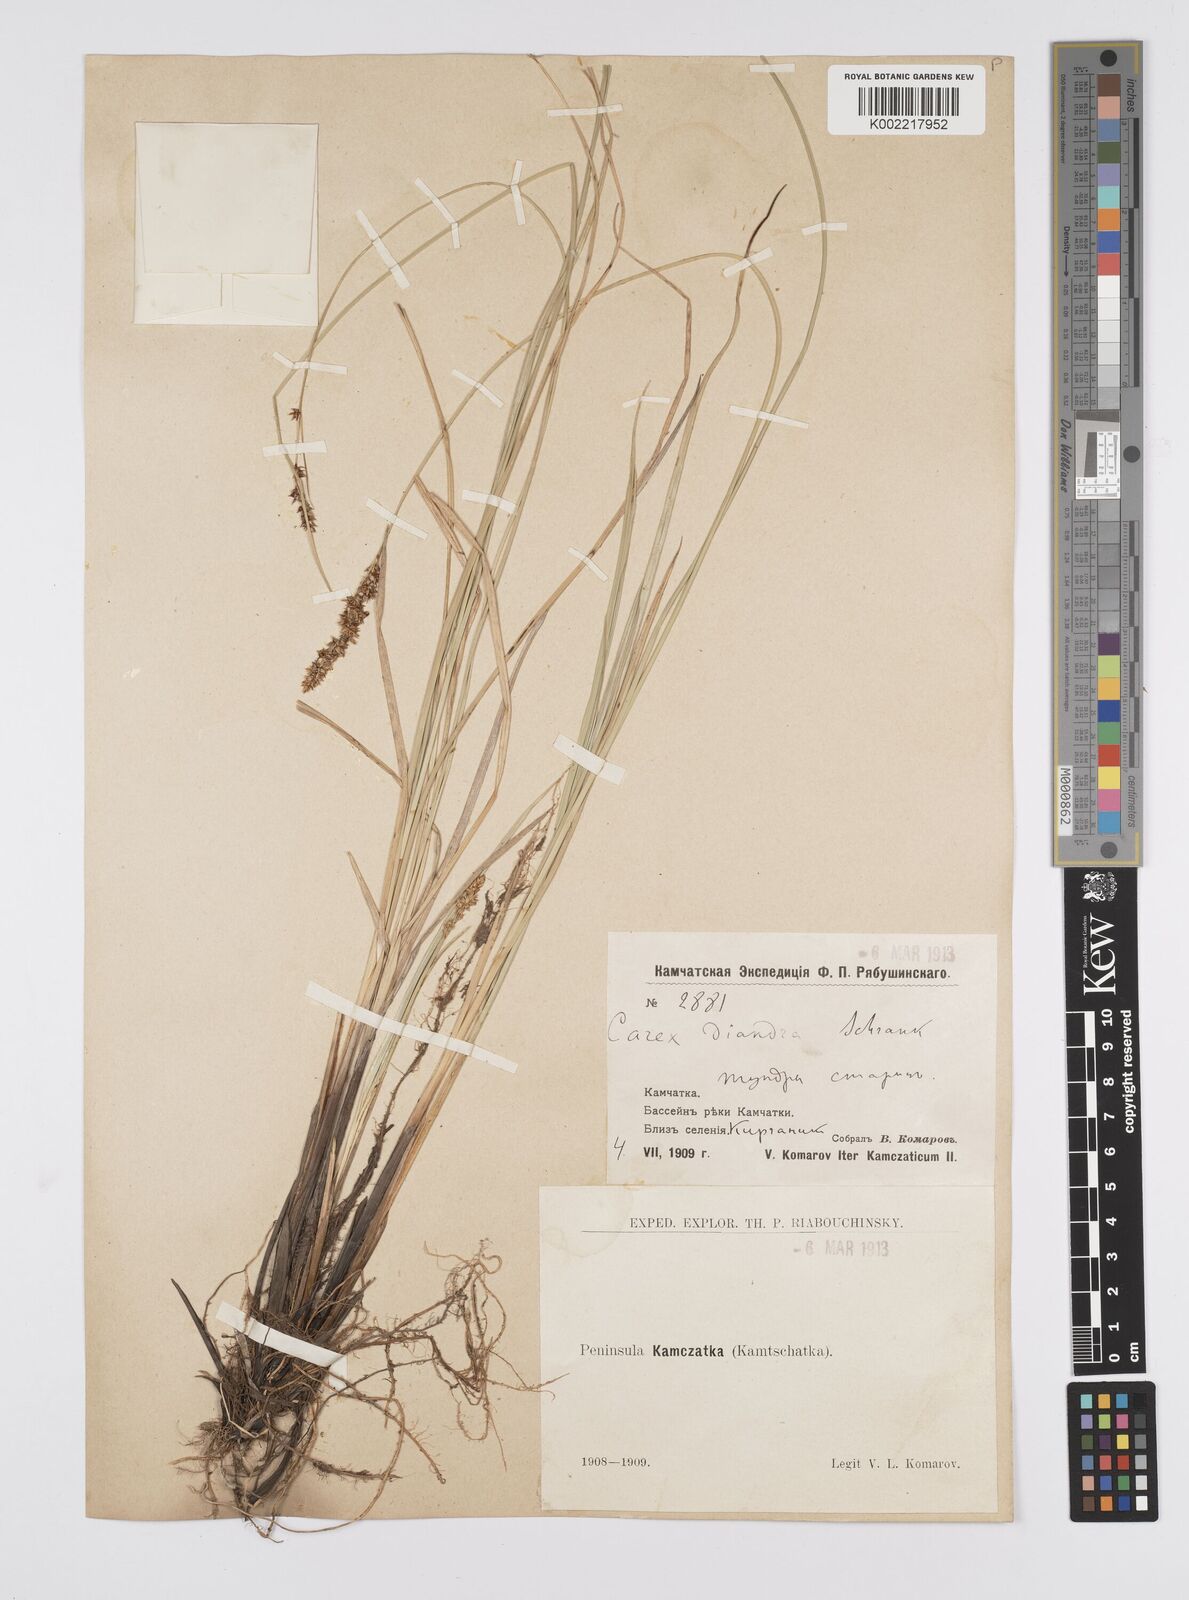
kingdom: Plantae
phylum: Tracheophyta
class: Liliopsida
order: Poales
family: Cyperaceae
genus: Carex
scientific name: Carex diandra
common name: Lesser tussock-sedge
